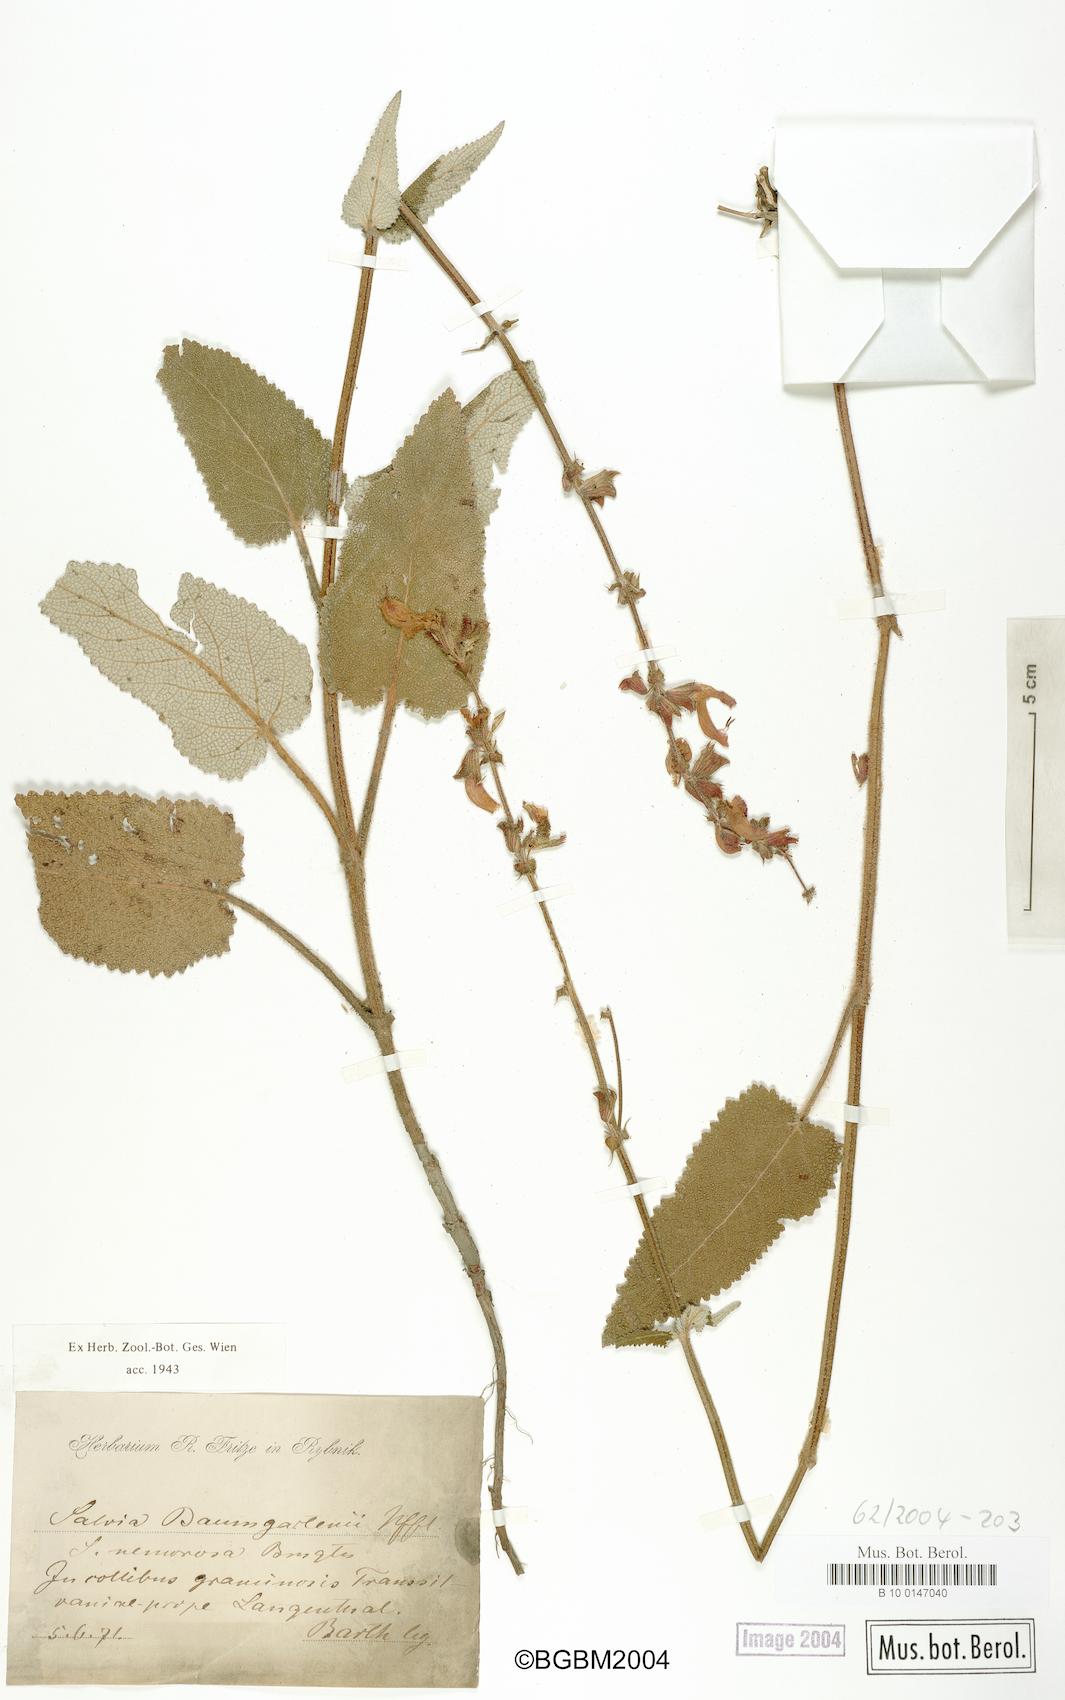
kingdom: Plantae
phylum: Tracheophyta
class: Magnoliopsida
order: Lamiales
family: Lamiaceae
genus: Salvia
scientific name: Salvia transsylvanica
